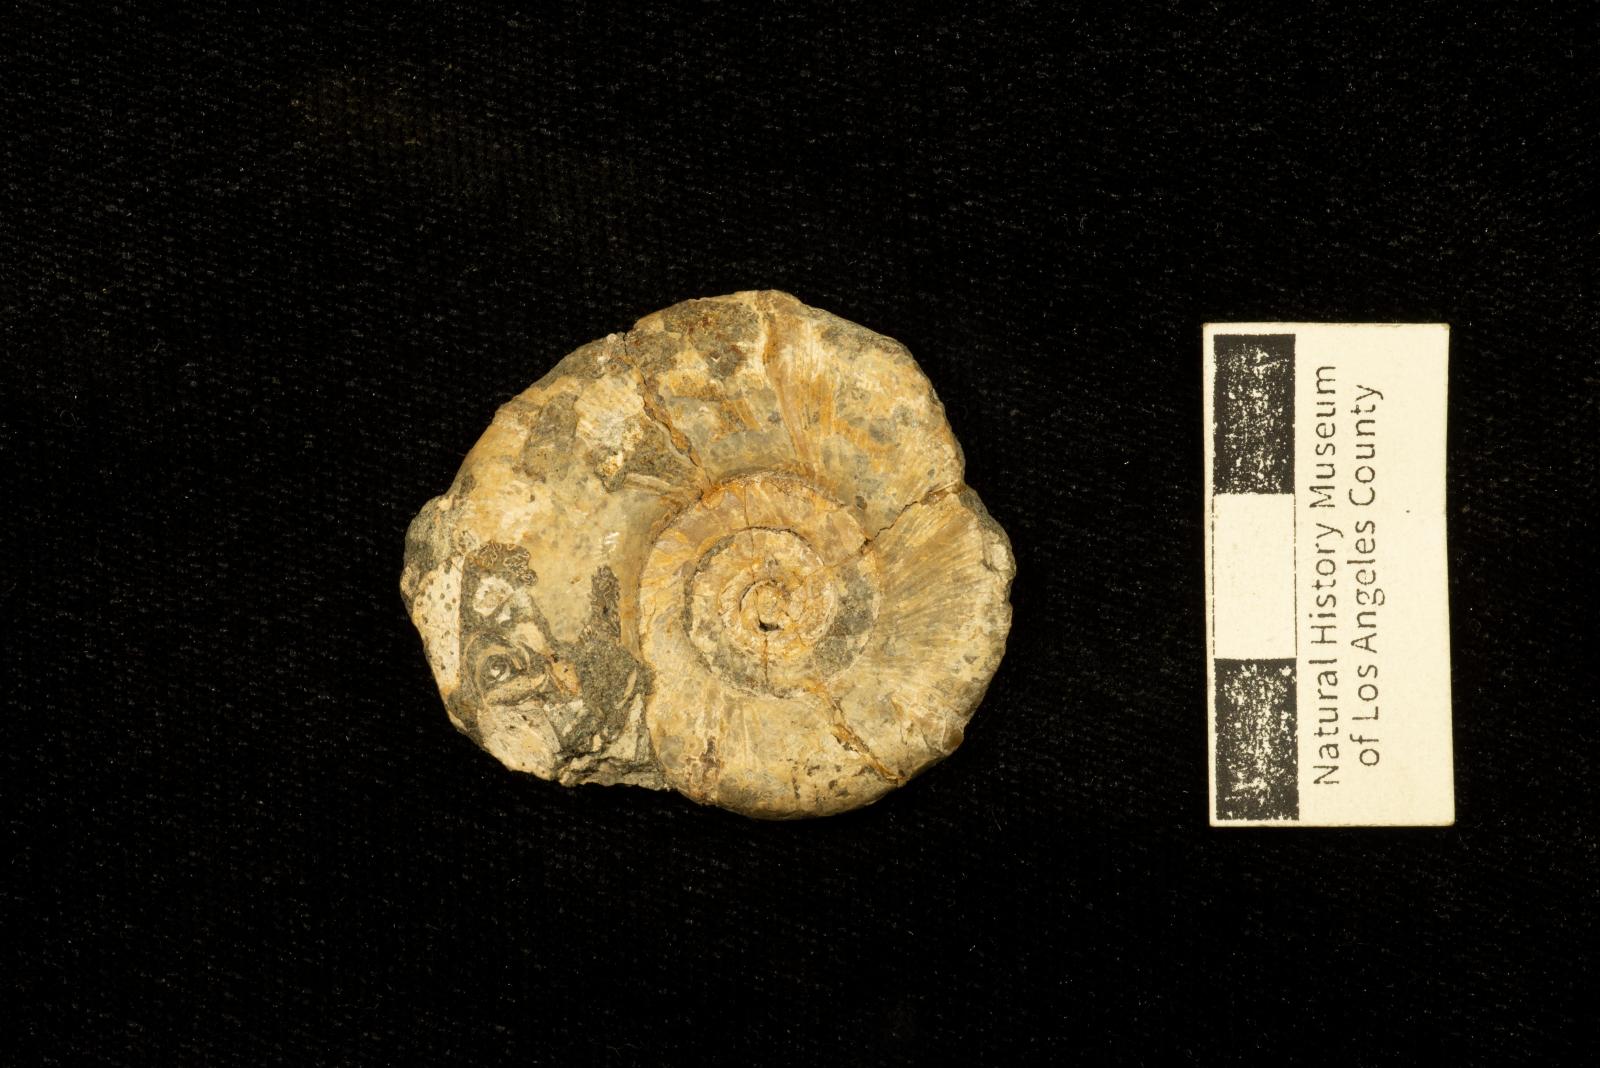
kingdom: Animalia
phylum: Mollusca
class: Cephalopoda
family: Gaudryceratidae
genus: Gaudryceras
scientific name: Gaudryceras denmanense
